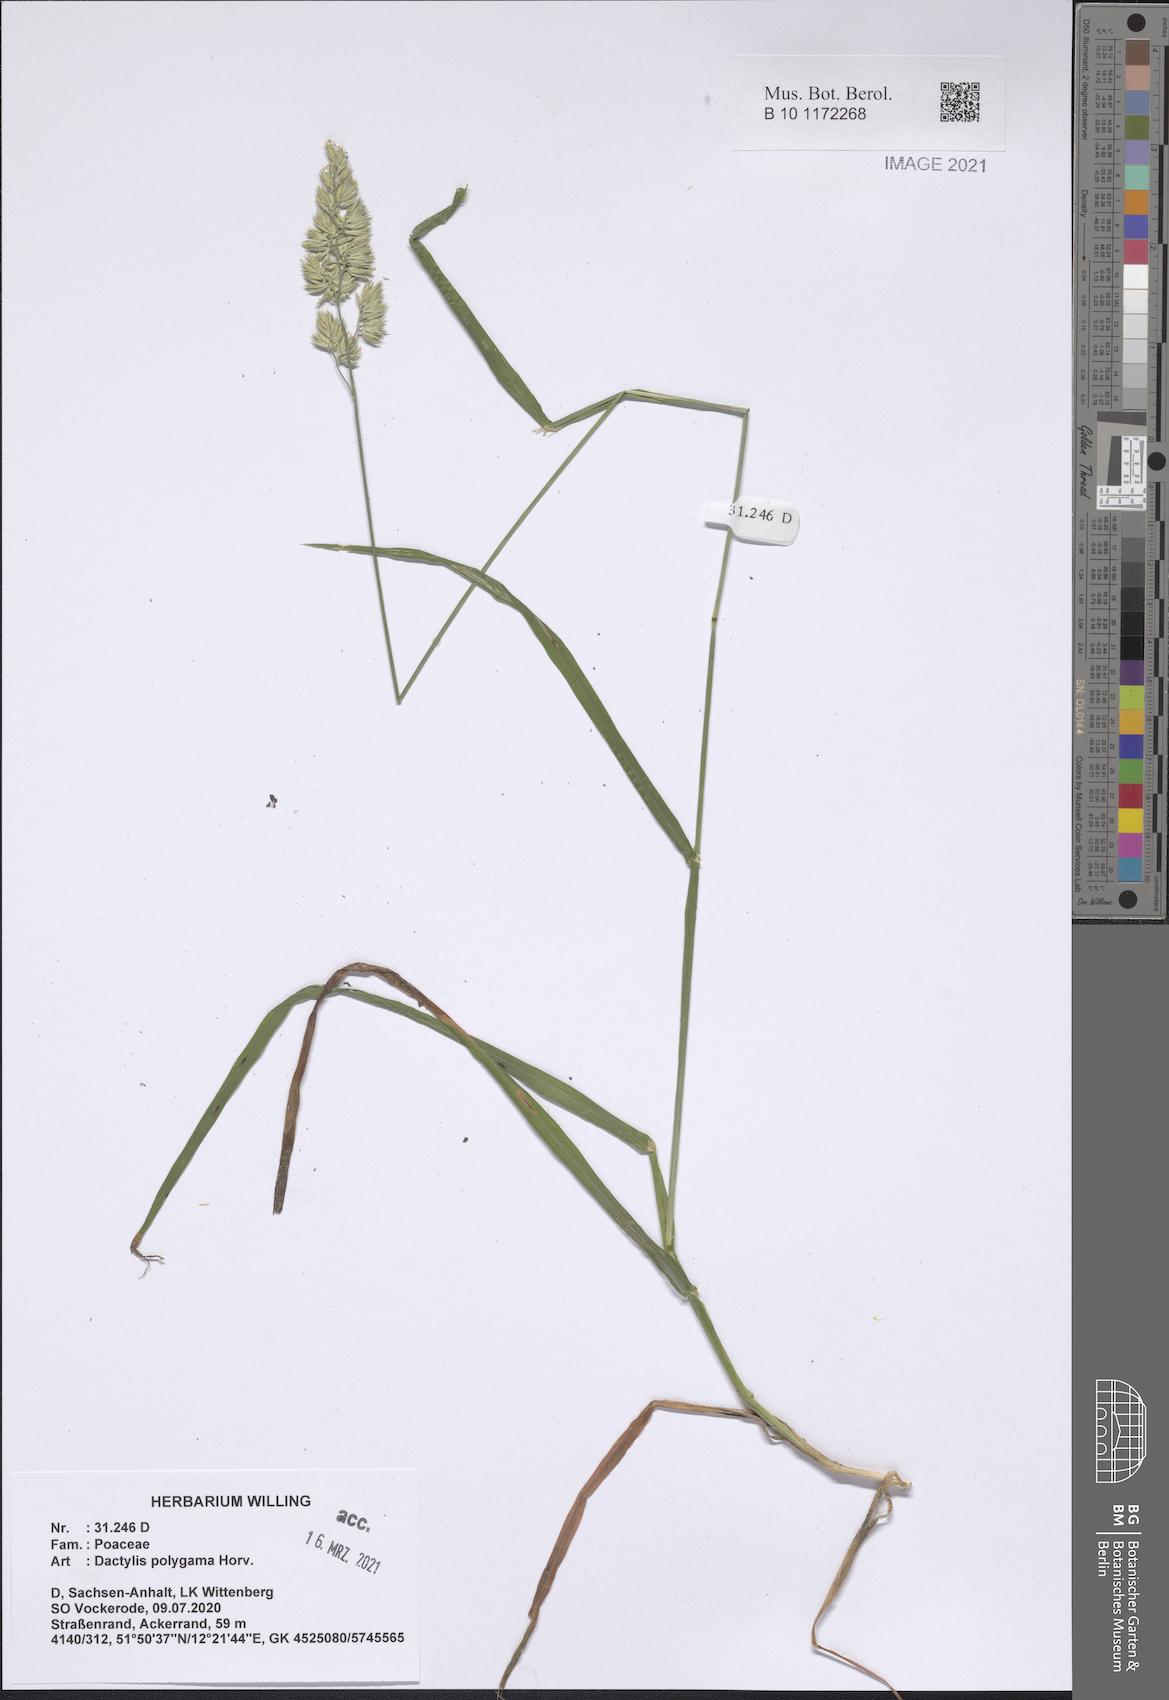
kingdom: Plantae
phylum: Tracheophyta
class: Liliopsida
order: Poales
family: Poaceae
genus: Dactylis
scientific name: Dactylis glomerata
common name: Orchardgrass
